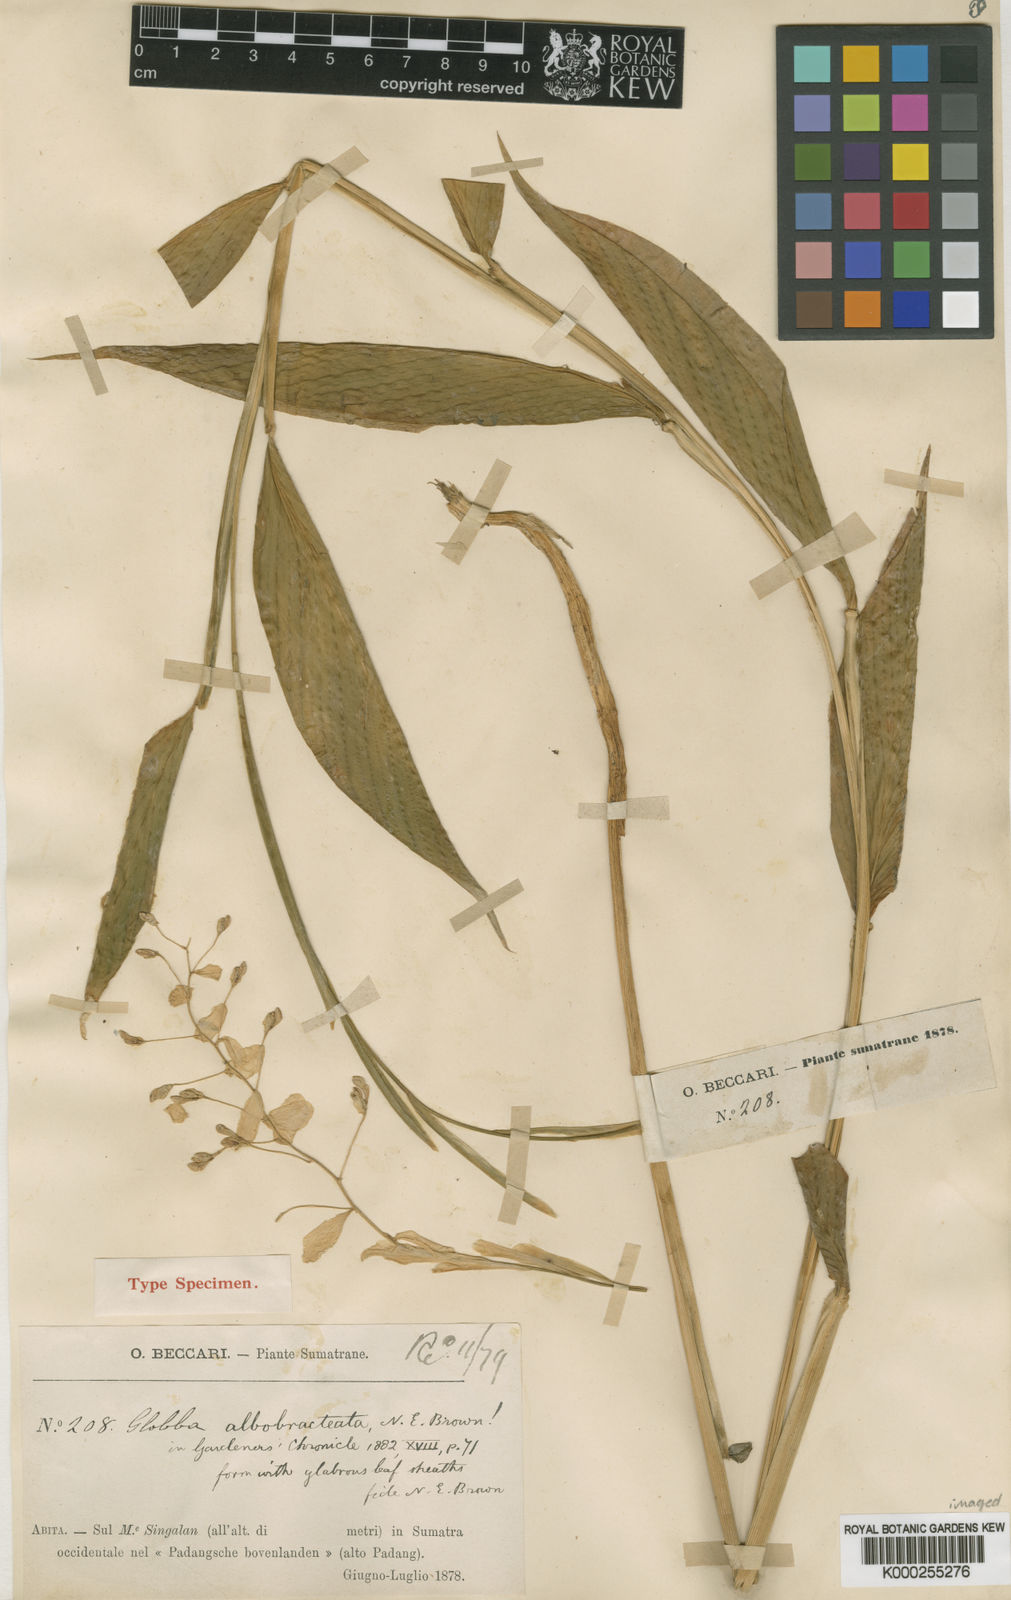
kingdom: Plantae
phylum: Tracheophyta
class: Liliopsida
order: Zingiberales
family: Zingiberaceae
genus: Globba
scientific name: Globba albobracteata
